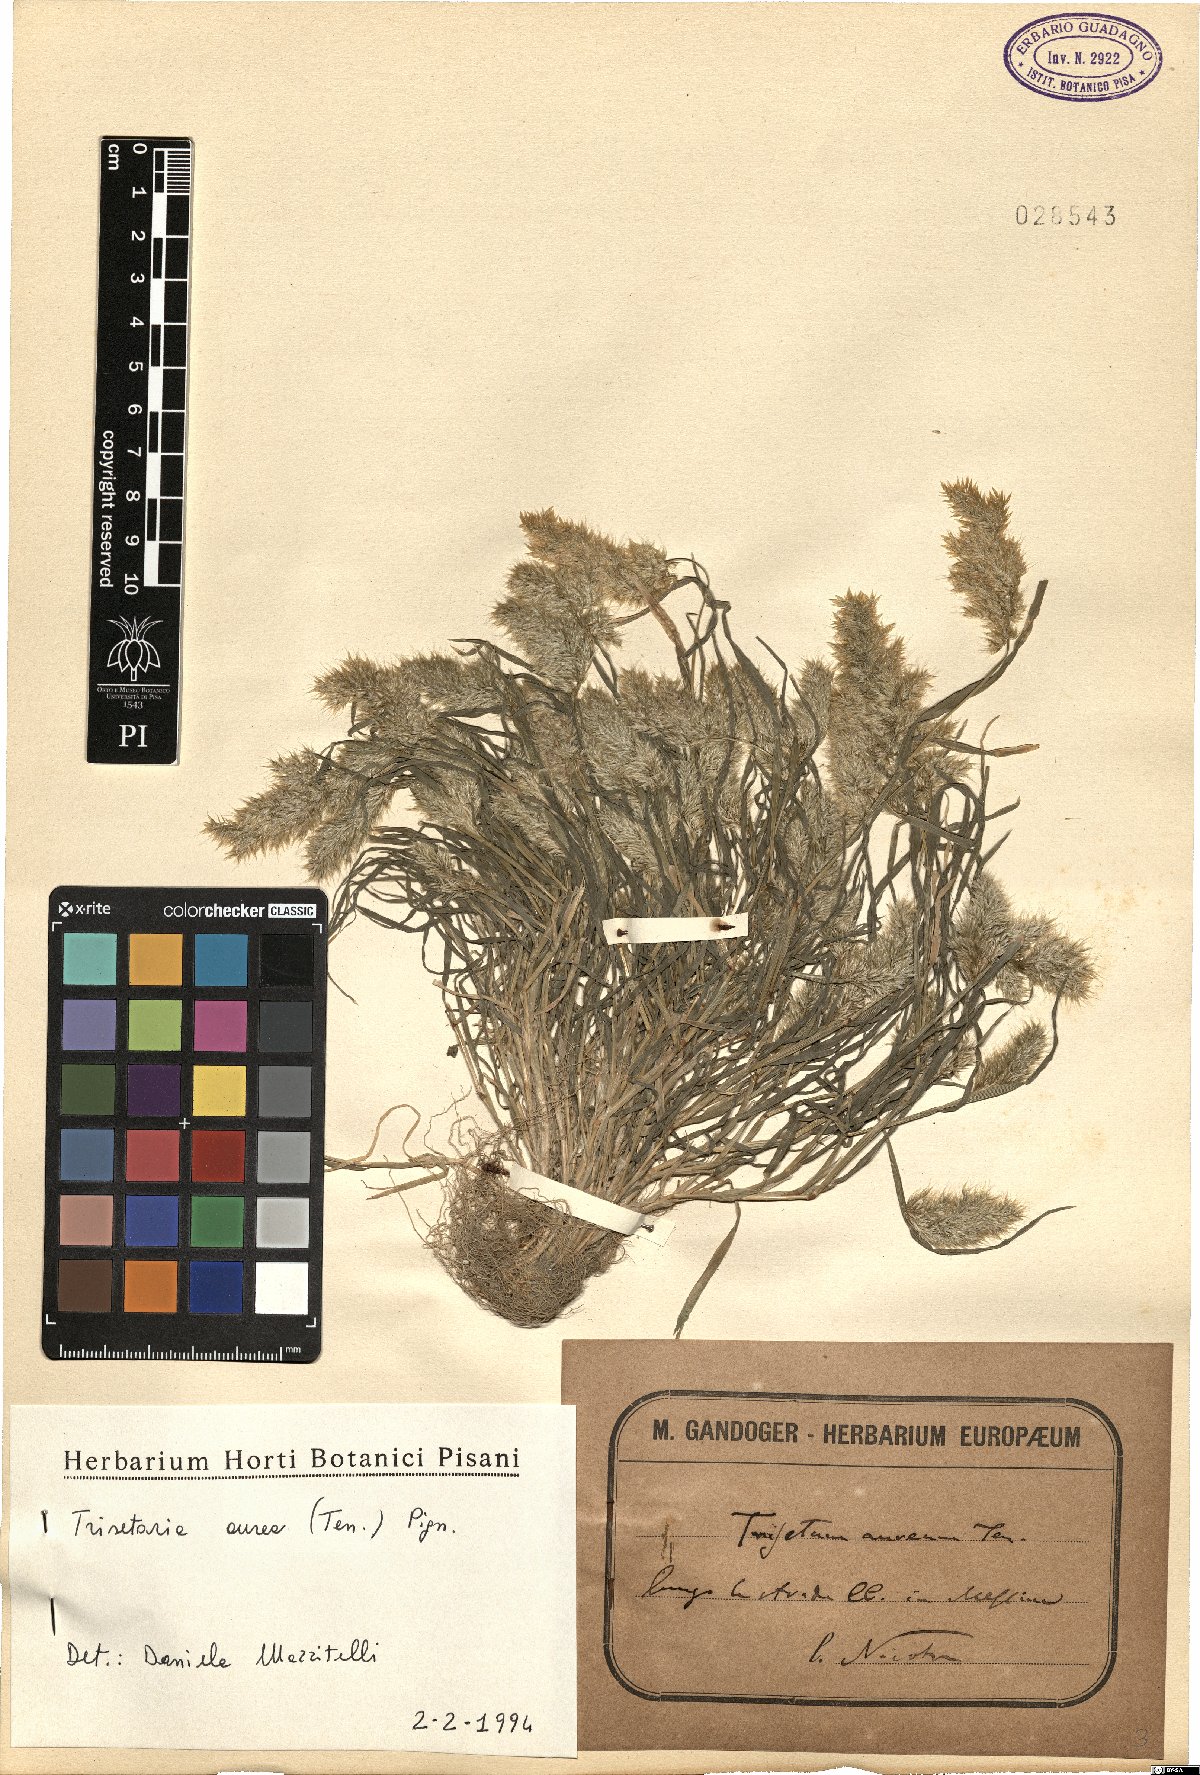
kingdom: Plantae
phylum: Tracheophyta
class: Liliopsida
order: Poales
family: Poaceae
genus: Trisetaria
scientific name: Trisetaria aurea
